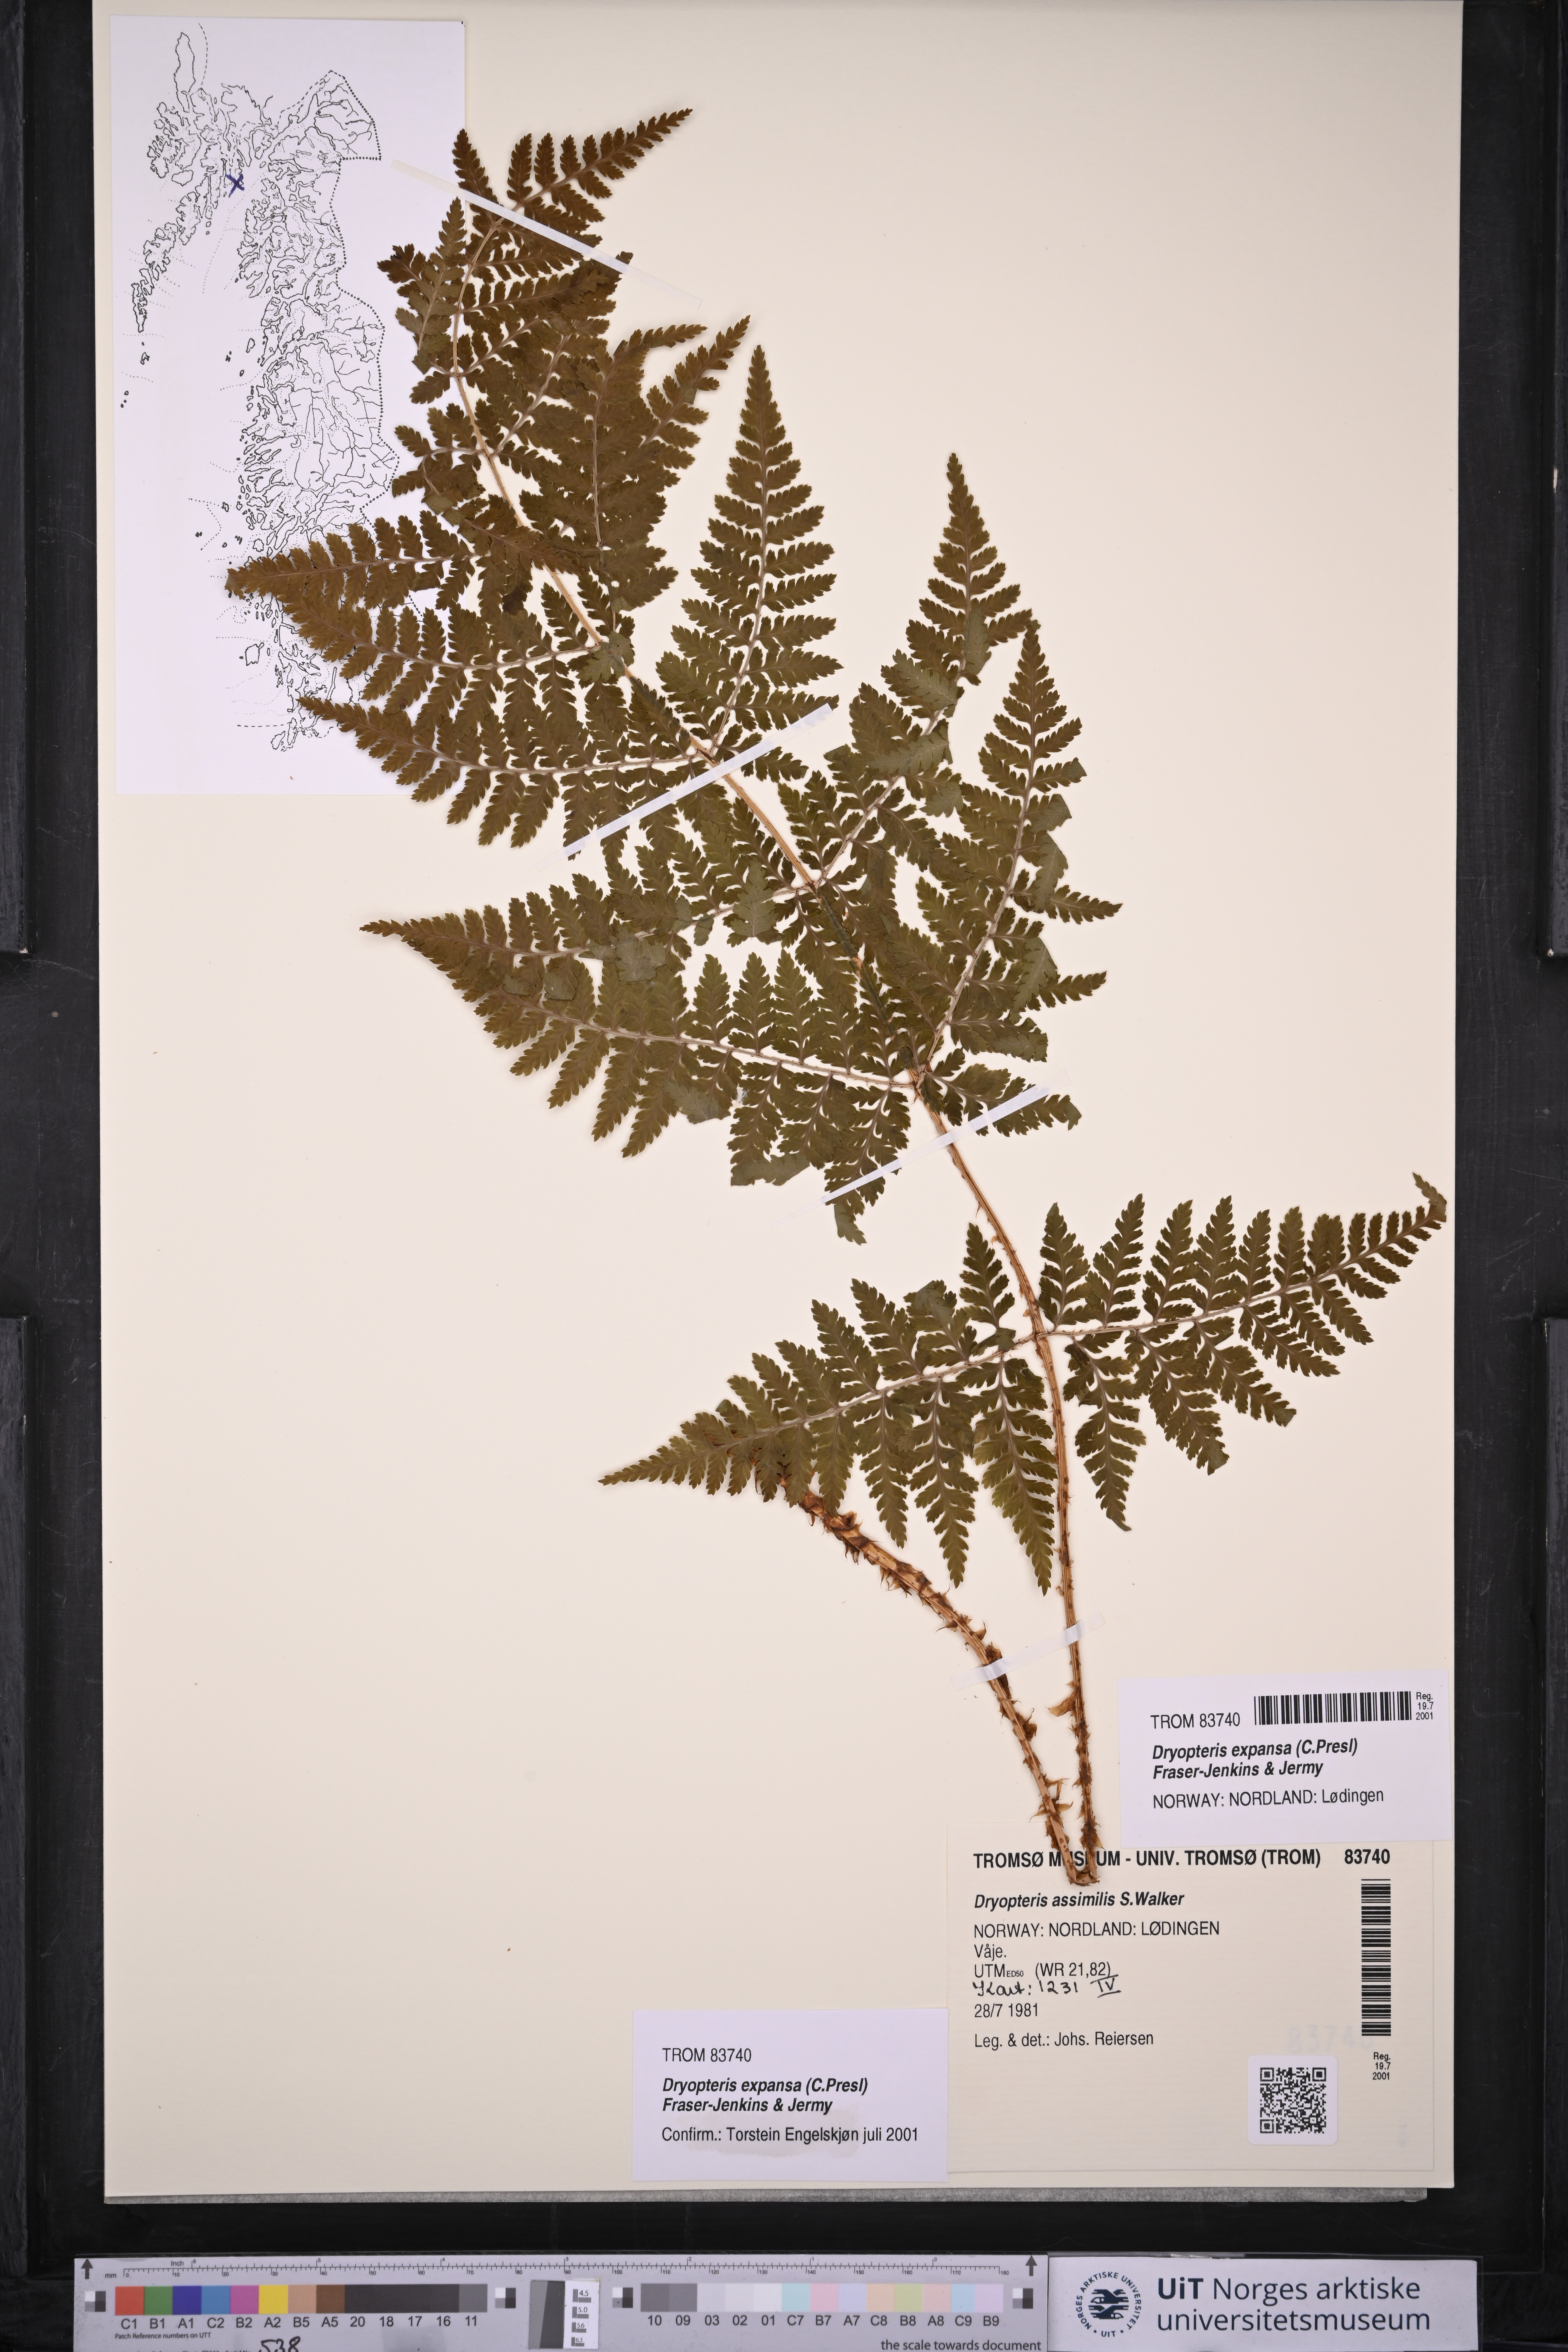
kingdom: Plantae
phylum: Tracheophyta
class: Polypodiopsida
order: Polypodiales
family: Dryopteridaceae
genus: Dryopteris
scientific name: Dryopteris expansa
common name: Northern buckler fern
